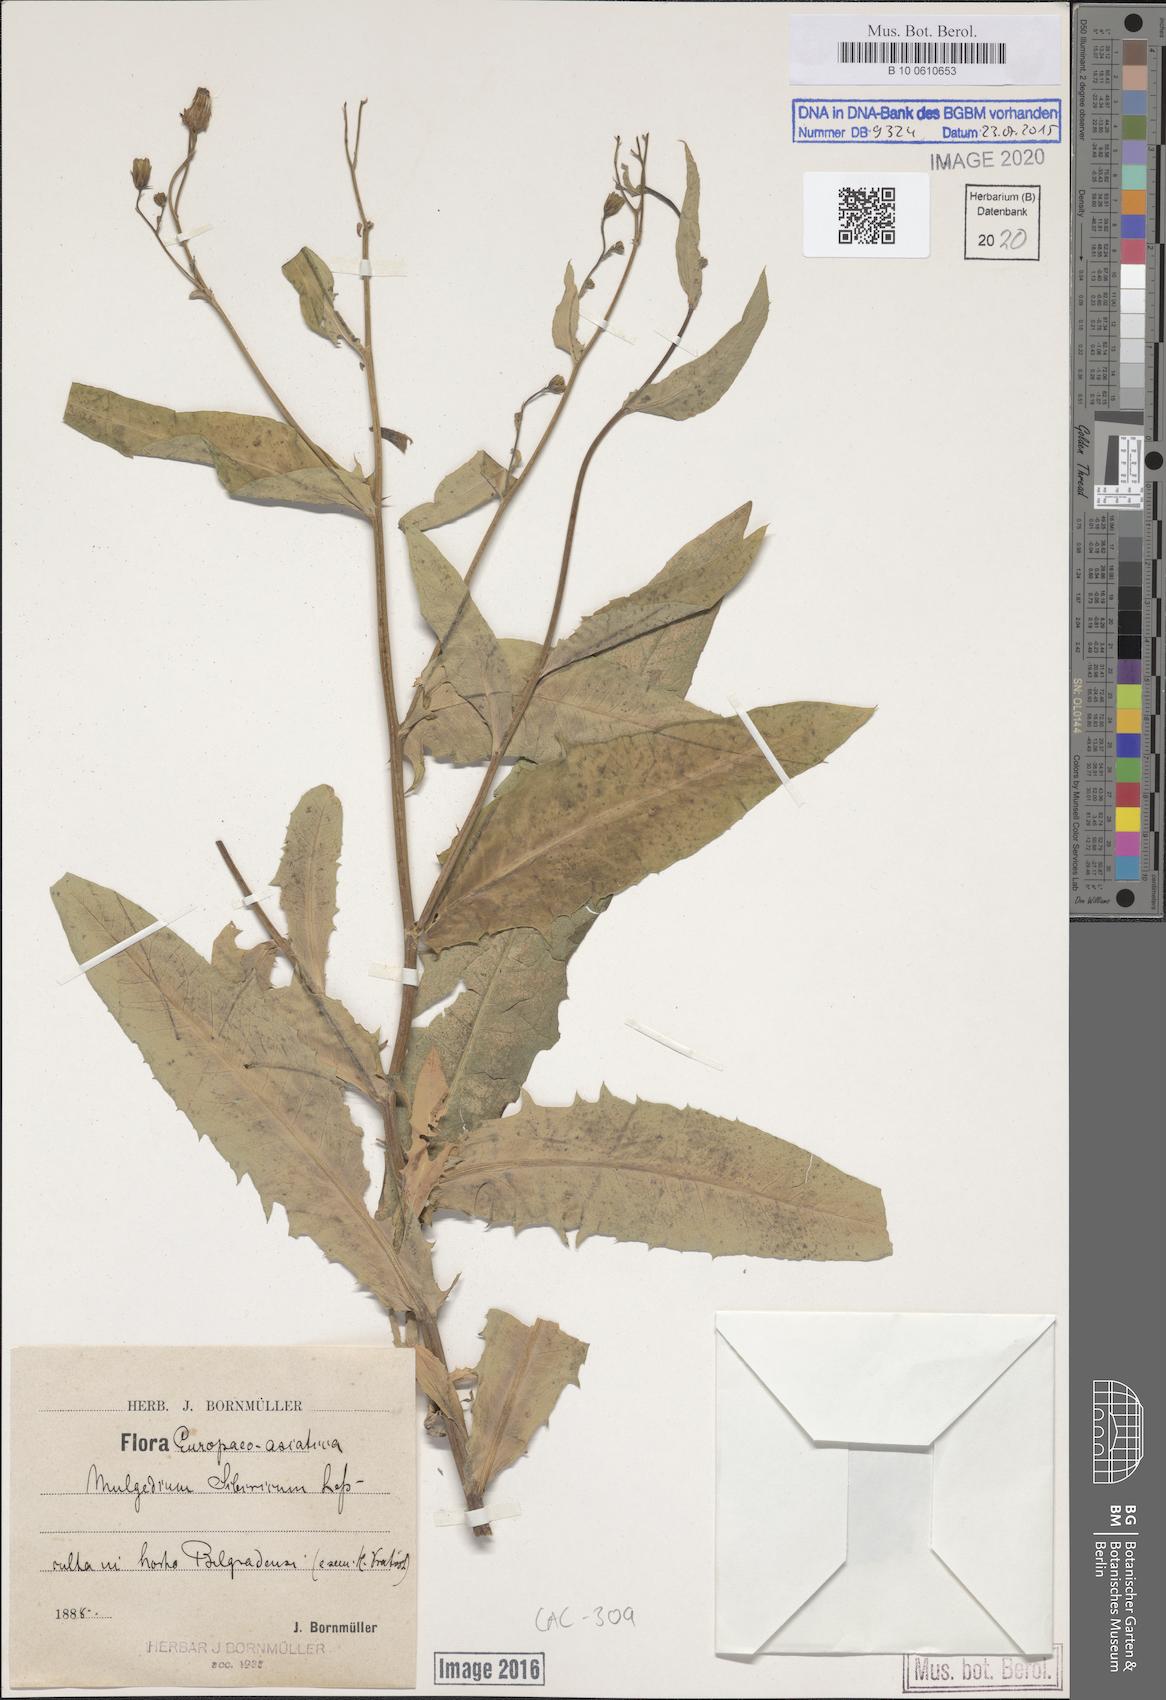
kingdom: Plantae
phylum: Tracheophyta
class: Magnoliopsida
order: Asterales
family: Asteraceae
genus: Lactuca
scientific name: Lactuca sibirica
